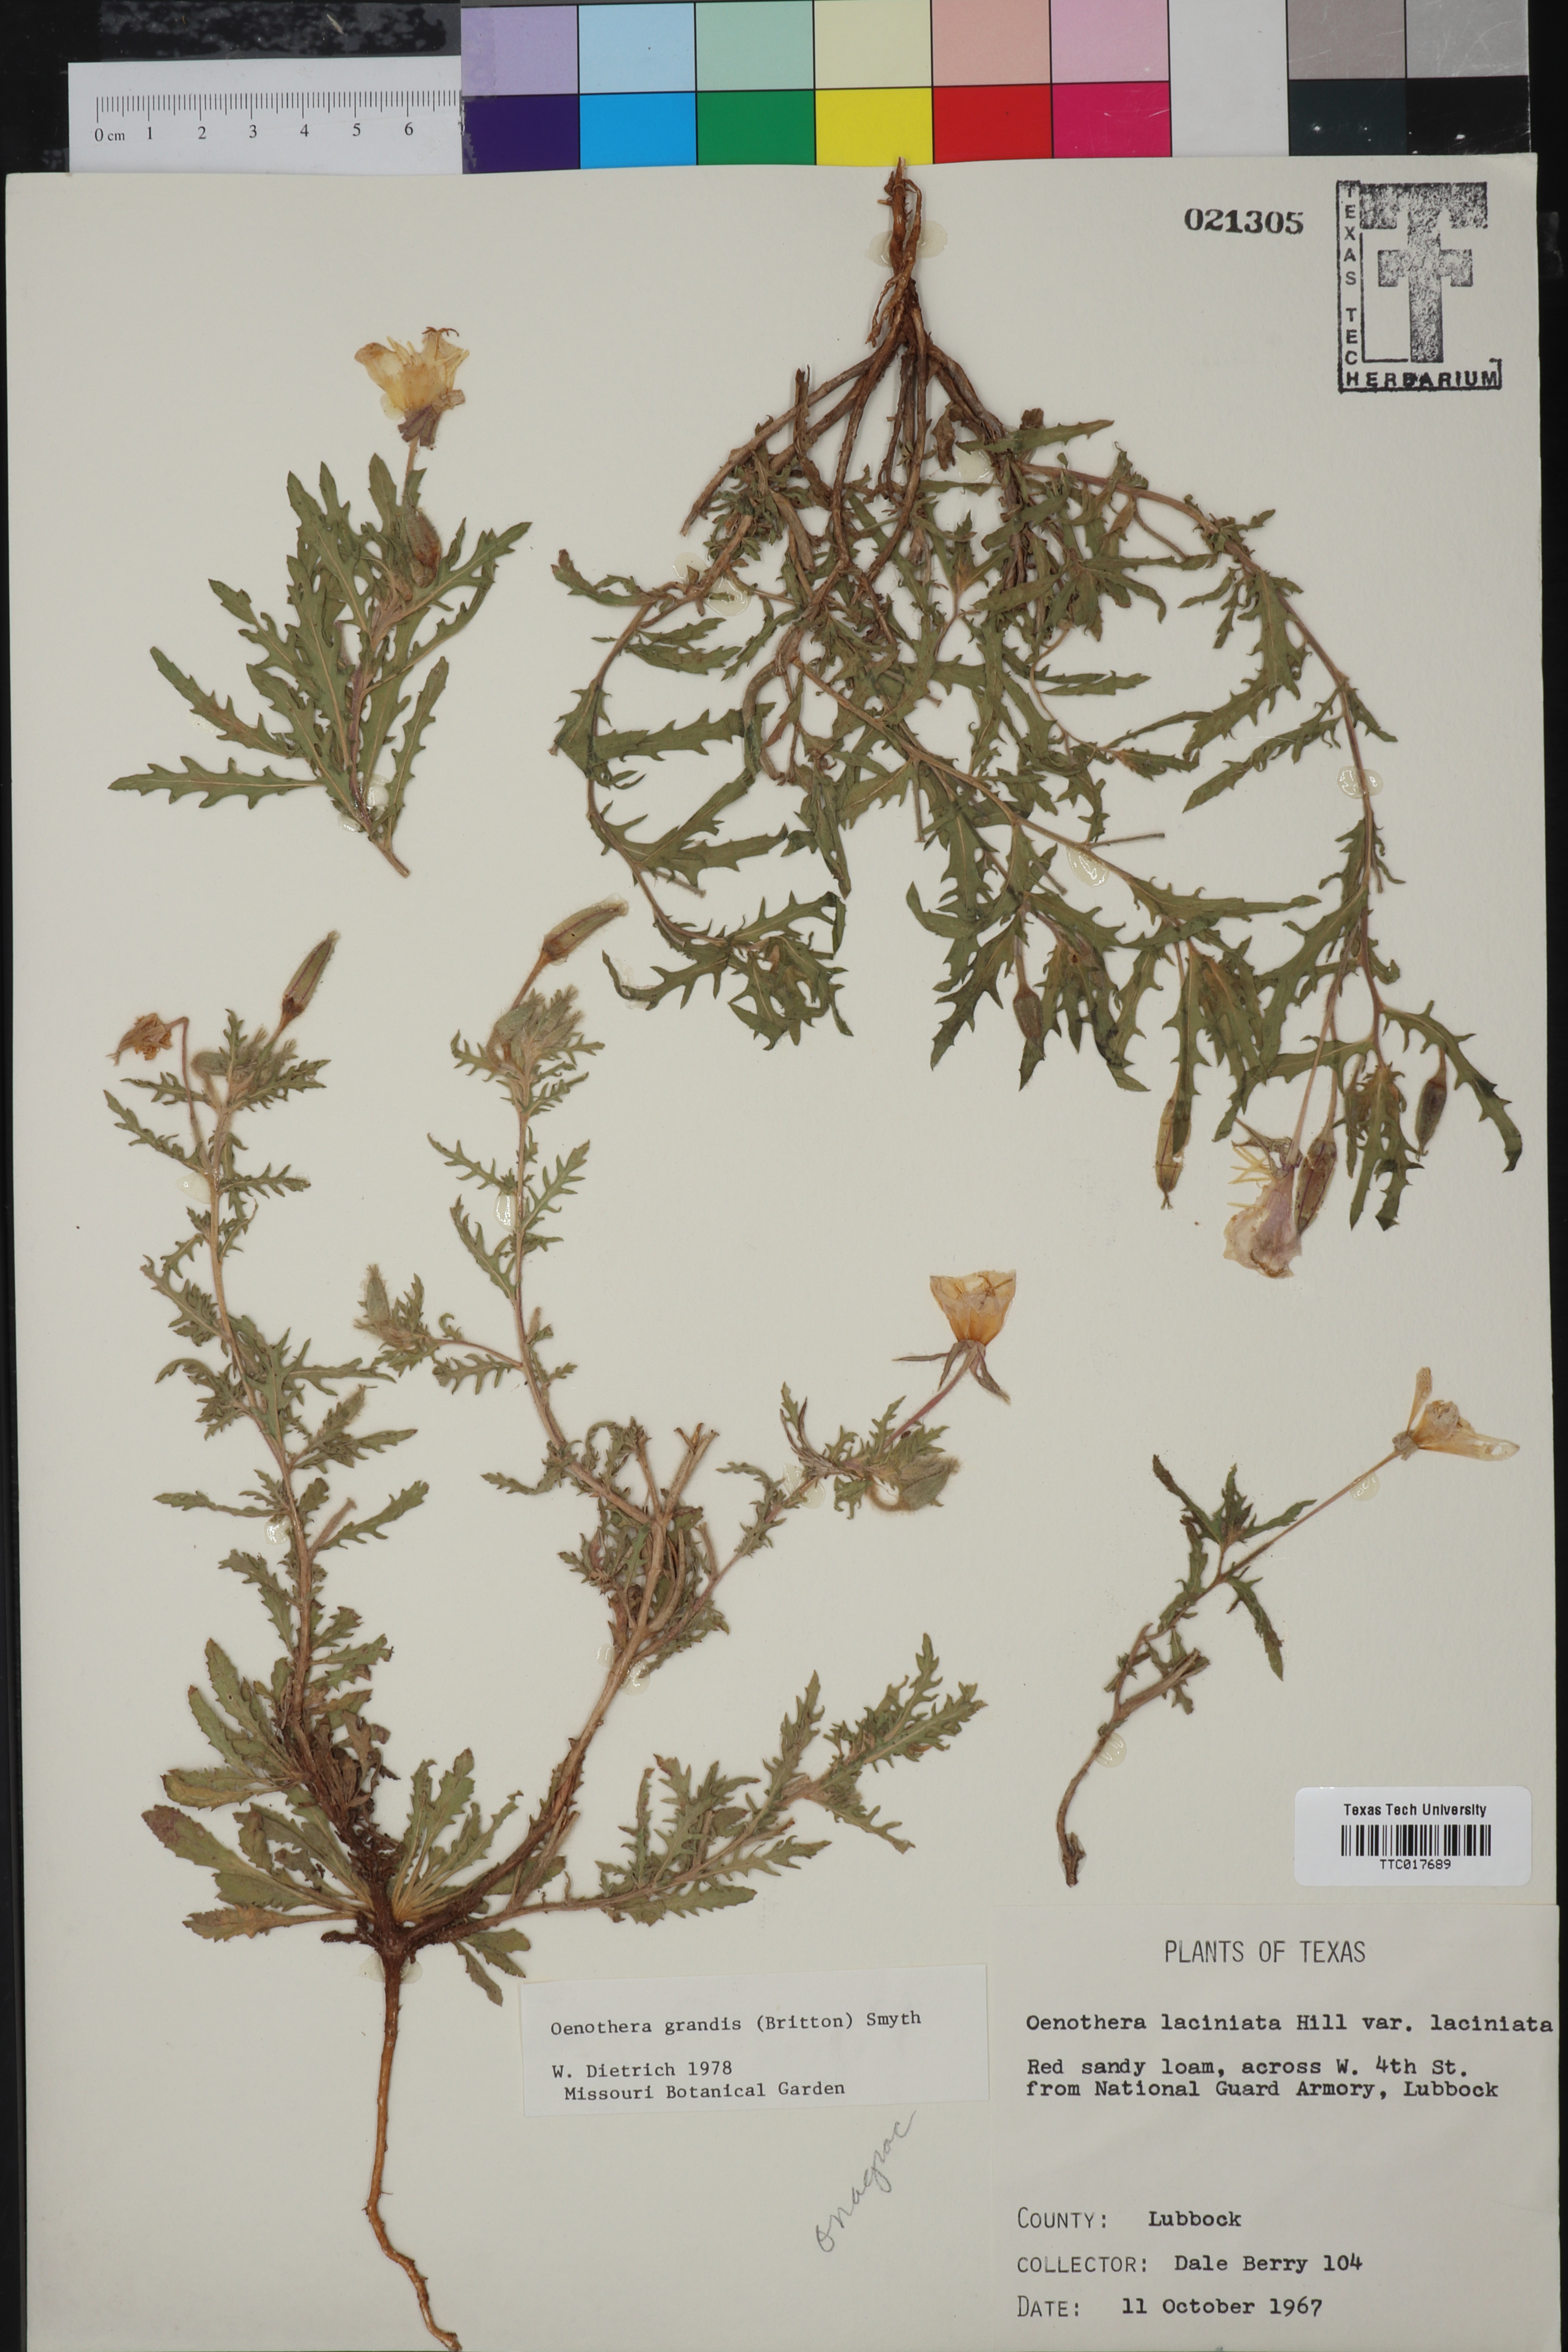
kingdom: Plantae
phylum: Tracheophyta
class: Magnoliopsida
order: Myrtales
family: Onagraceae
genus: Oenothera
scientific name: Oenothera grandis
